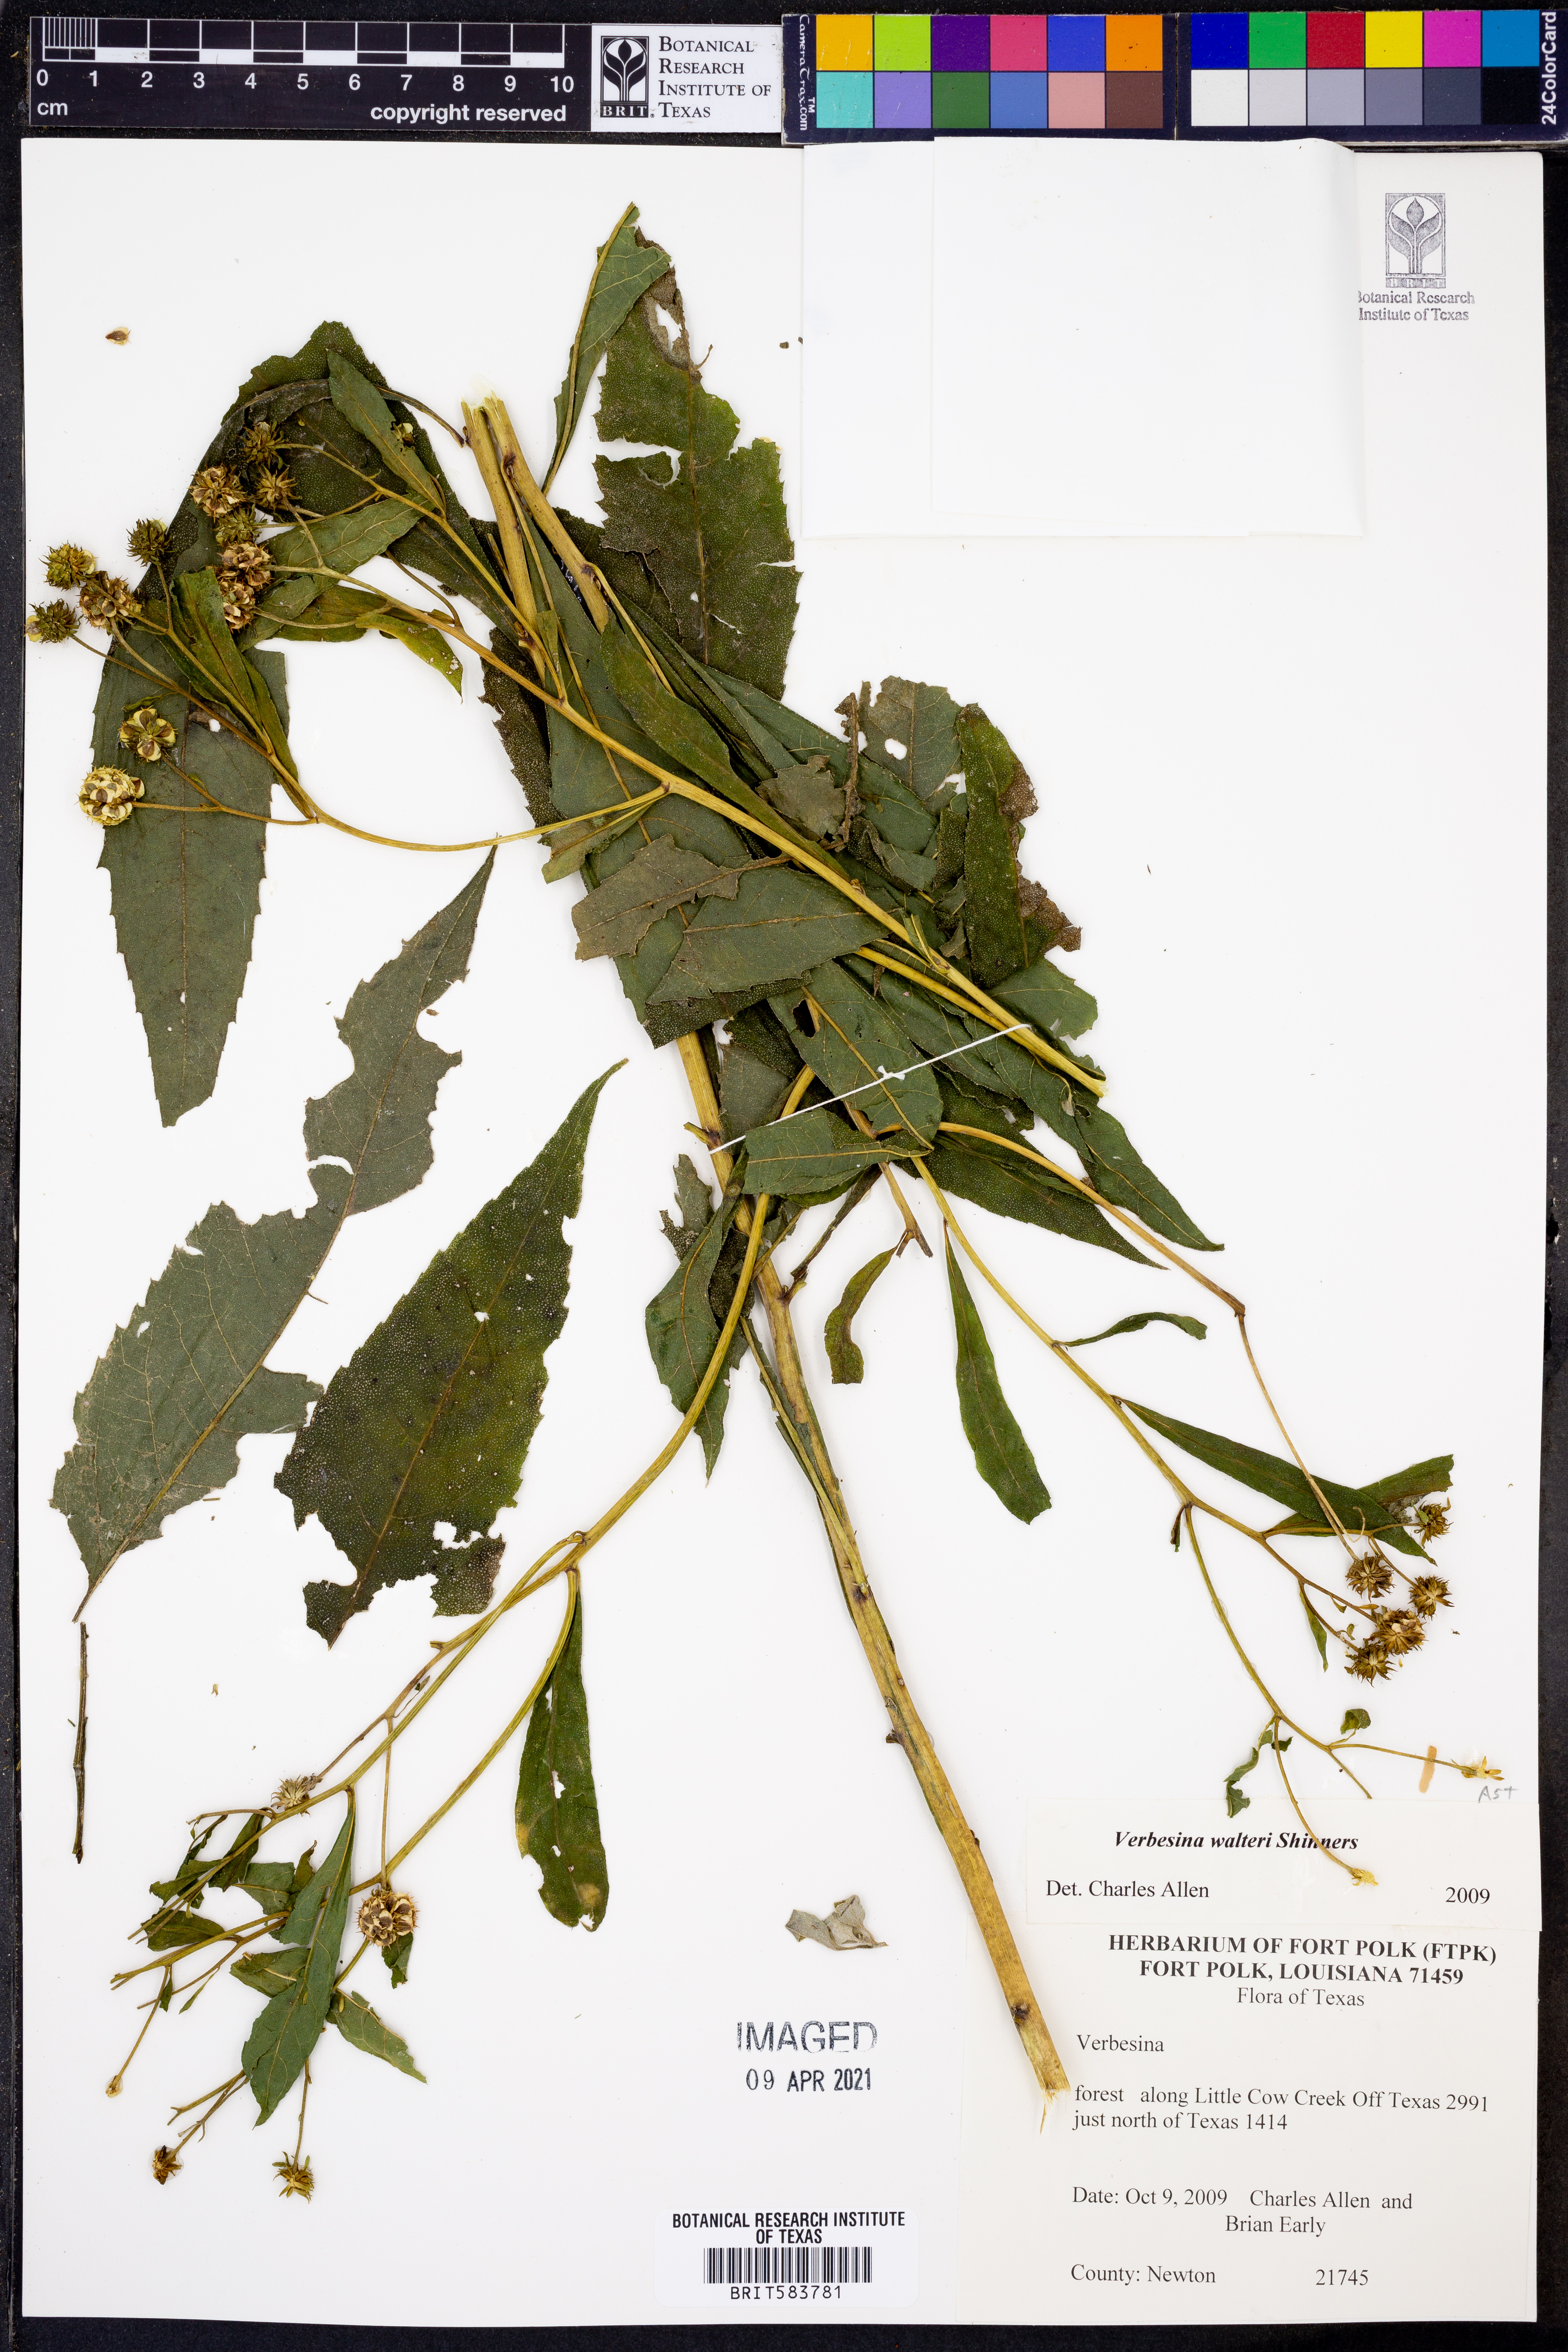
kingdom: Plantae
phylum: Tracheophyta
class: Magnoliopsida
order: Asterales
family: Asteraceae
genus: Verbesina
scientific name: Verbesina walteri
